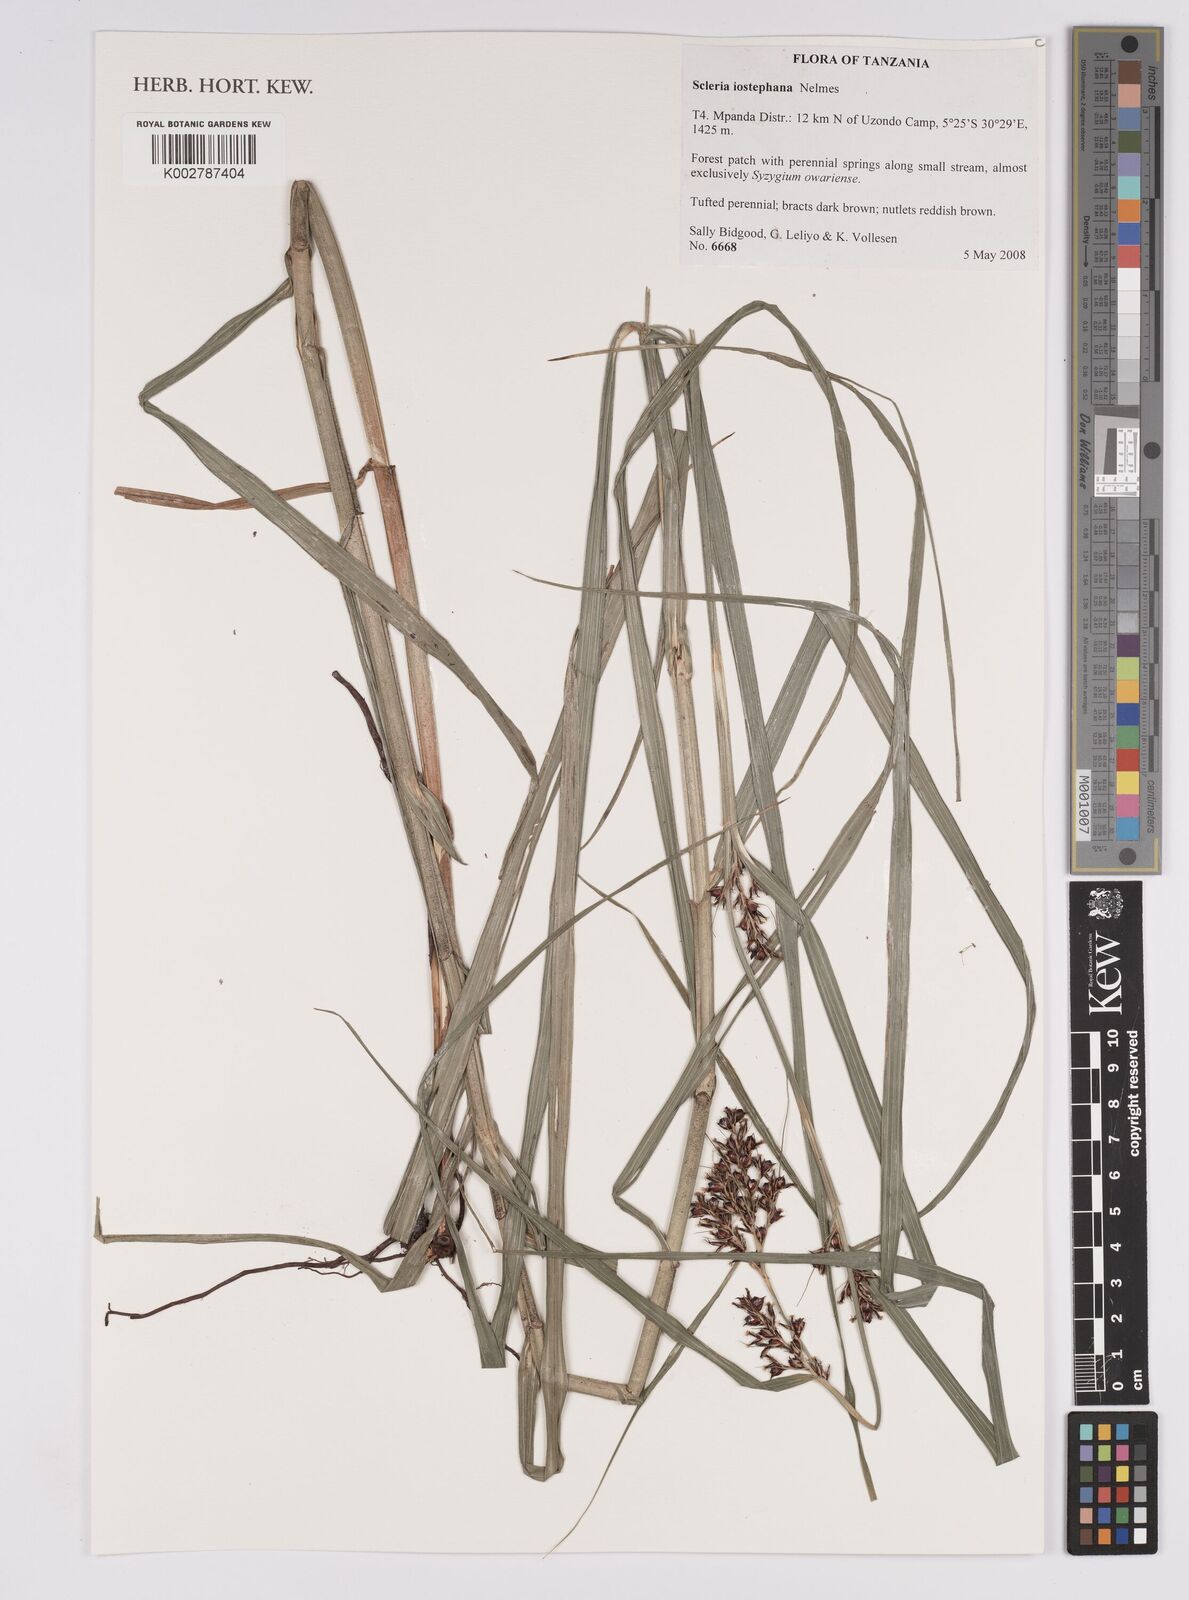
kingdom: Plantae
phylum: Tracheophyta
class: Liliopsida
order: Poales
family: Cyperaceae
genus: Scleria
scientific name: Scleria iostephana
